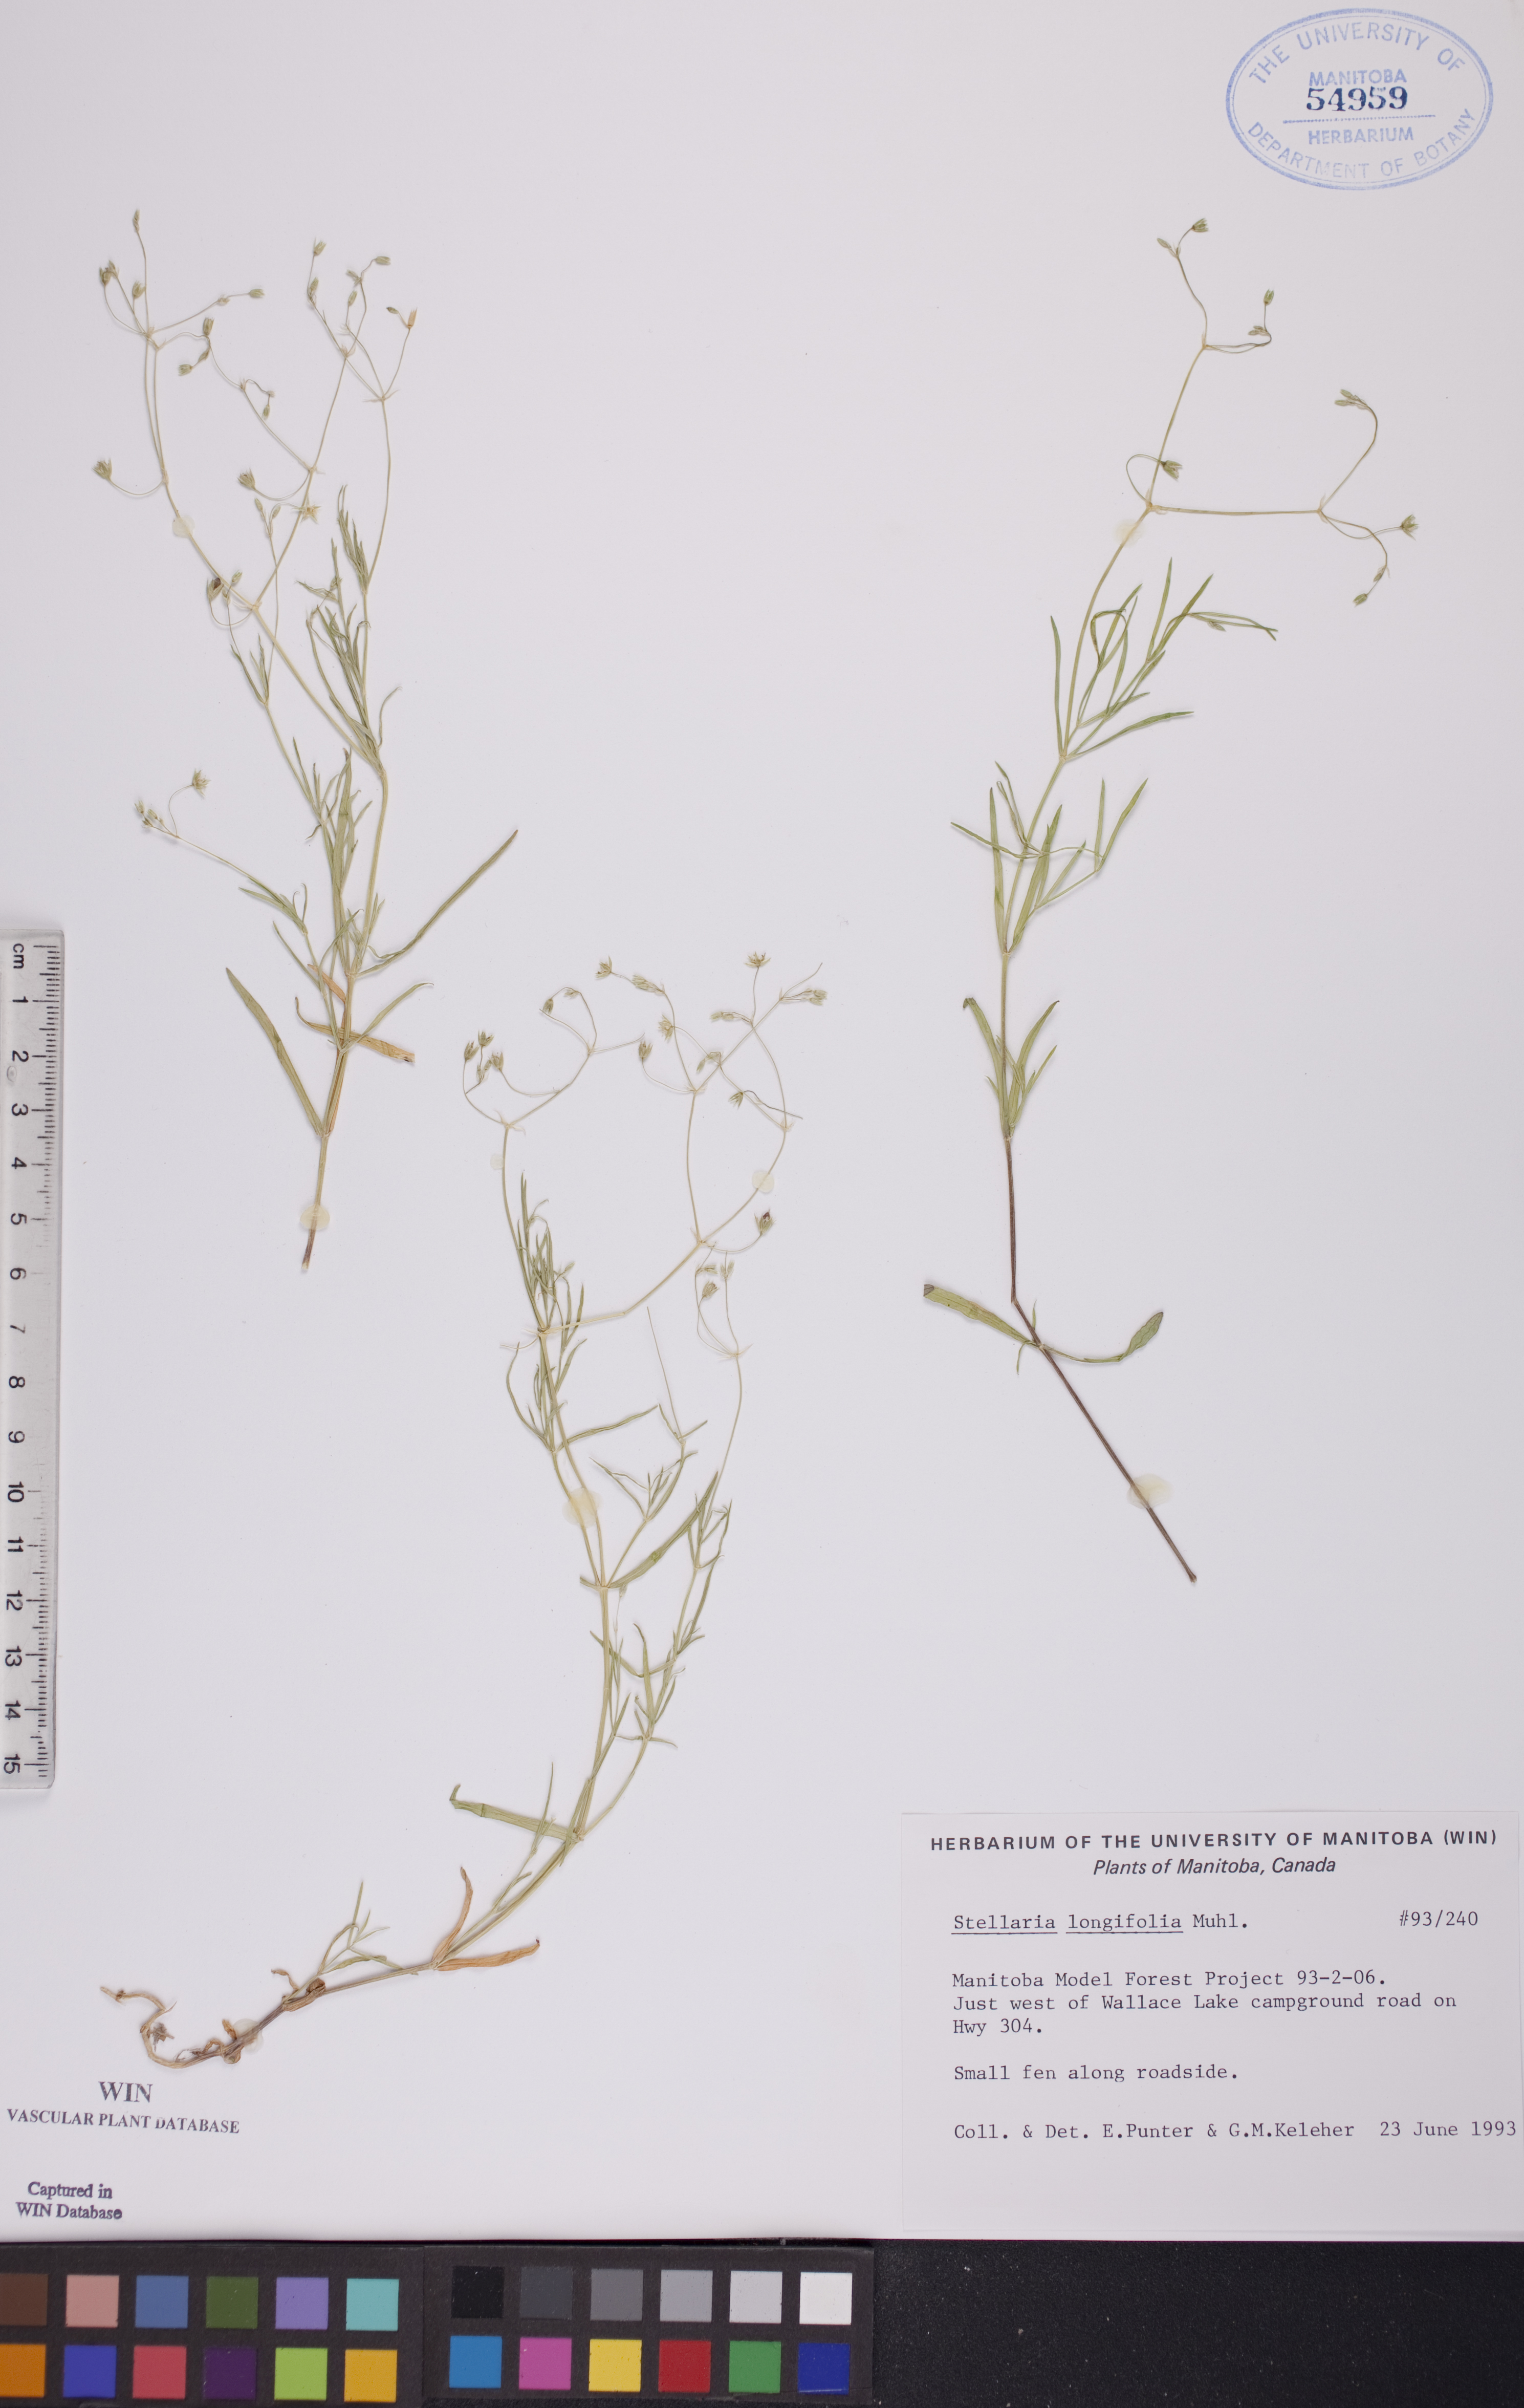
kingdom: Plantae
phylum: Tracheophyta
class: Magnoliopsida
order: Caryophyllales
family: Caryophyllaceae
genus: Stellaria
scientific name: Stellaria longifolia
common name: Long-leaved chickweed
